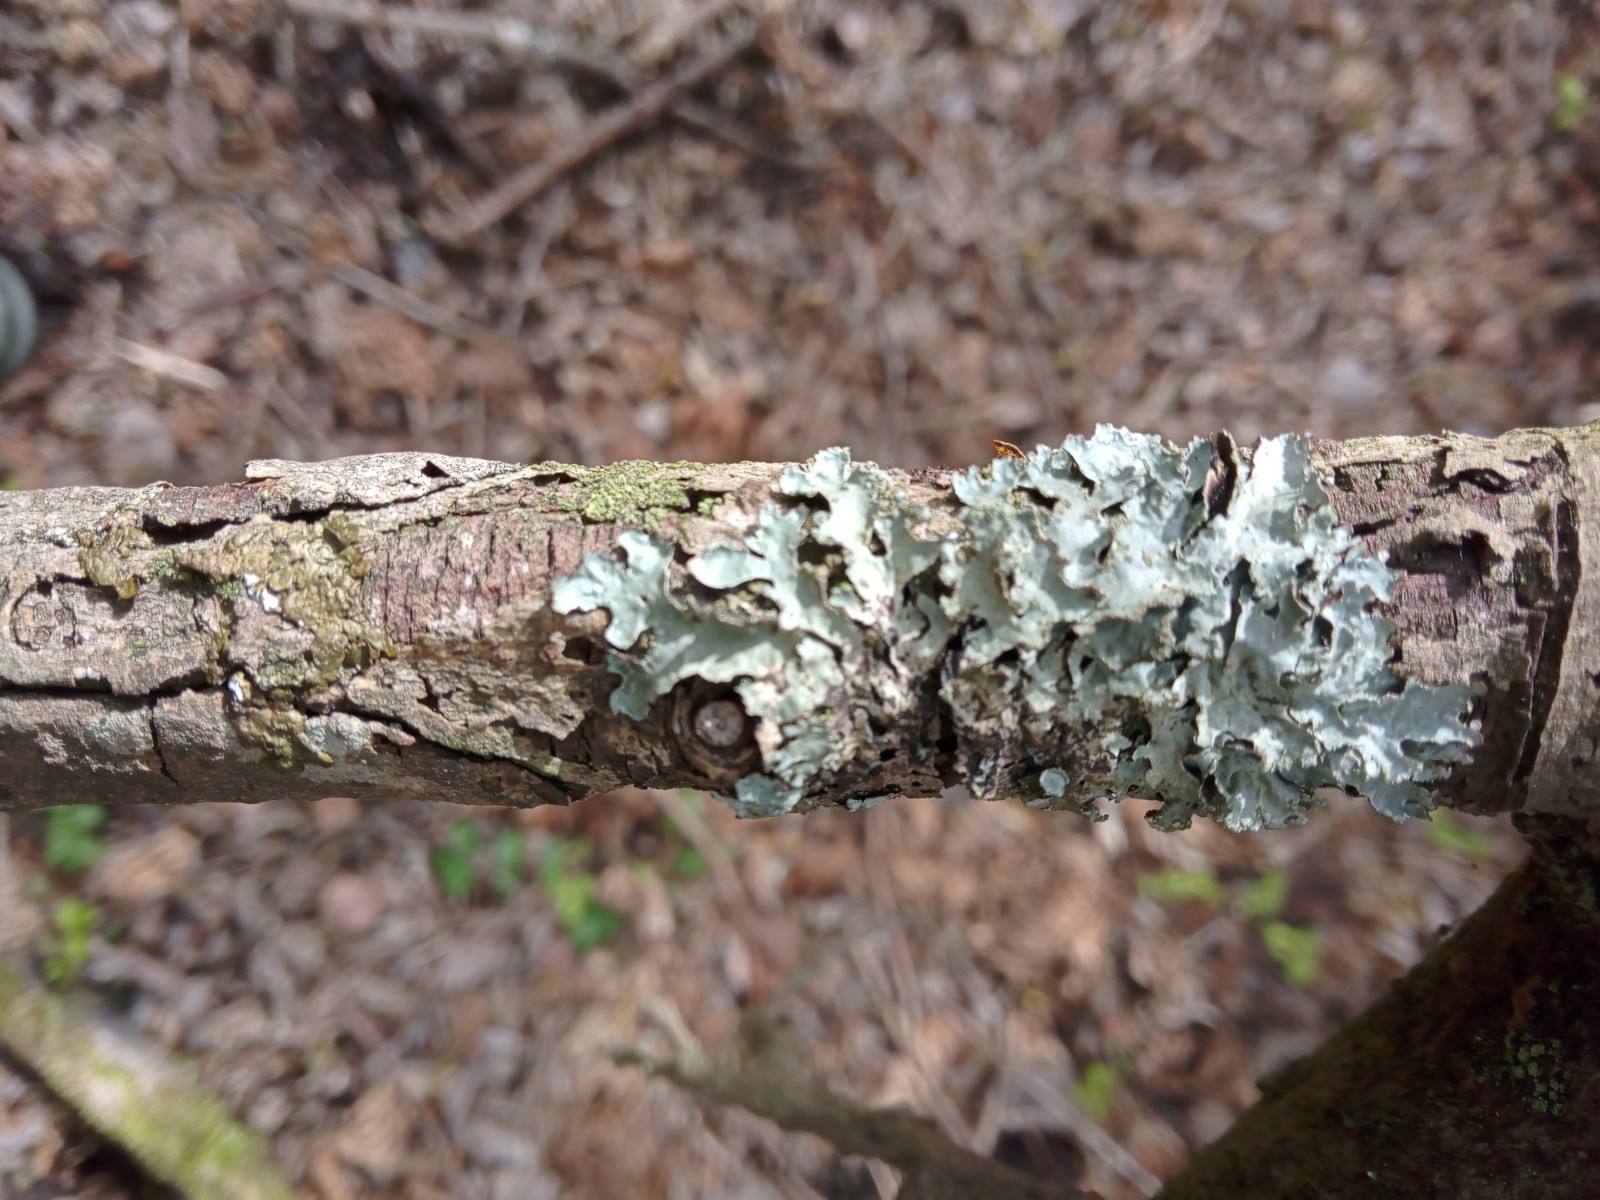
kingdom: Fungi
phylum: Ascomycota
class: Lecanoromycetes
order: Lecanorales
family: Parmeliaceae
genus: Parmelia
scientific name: Parmelia sulcata
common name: rynket skållav
